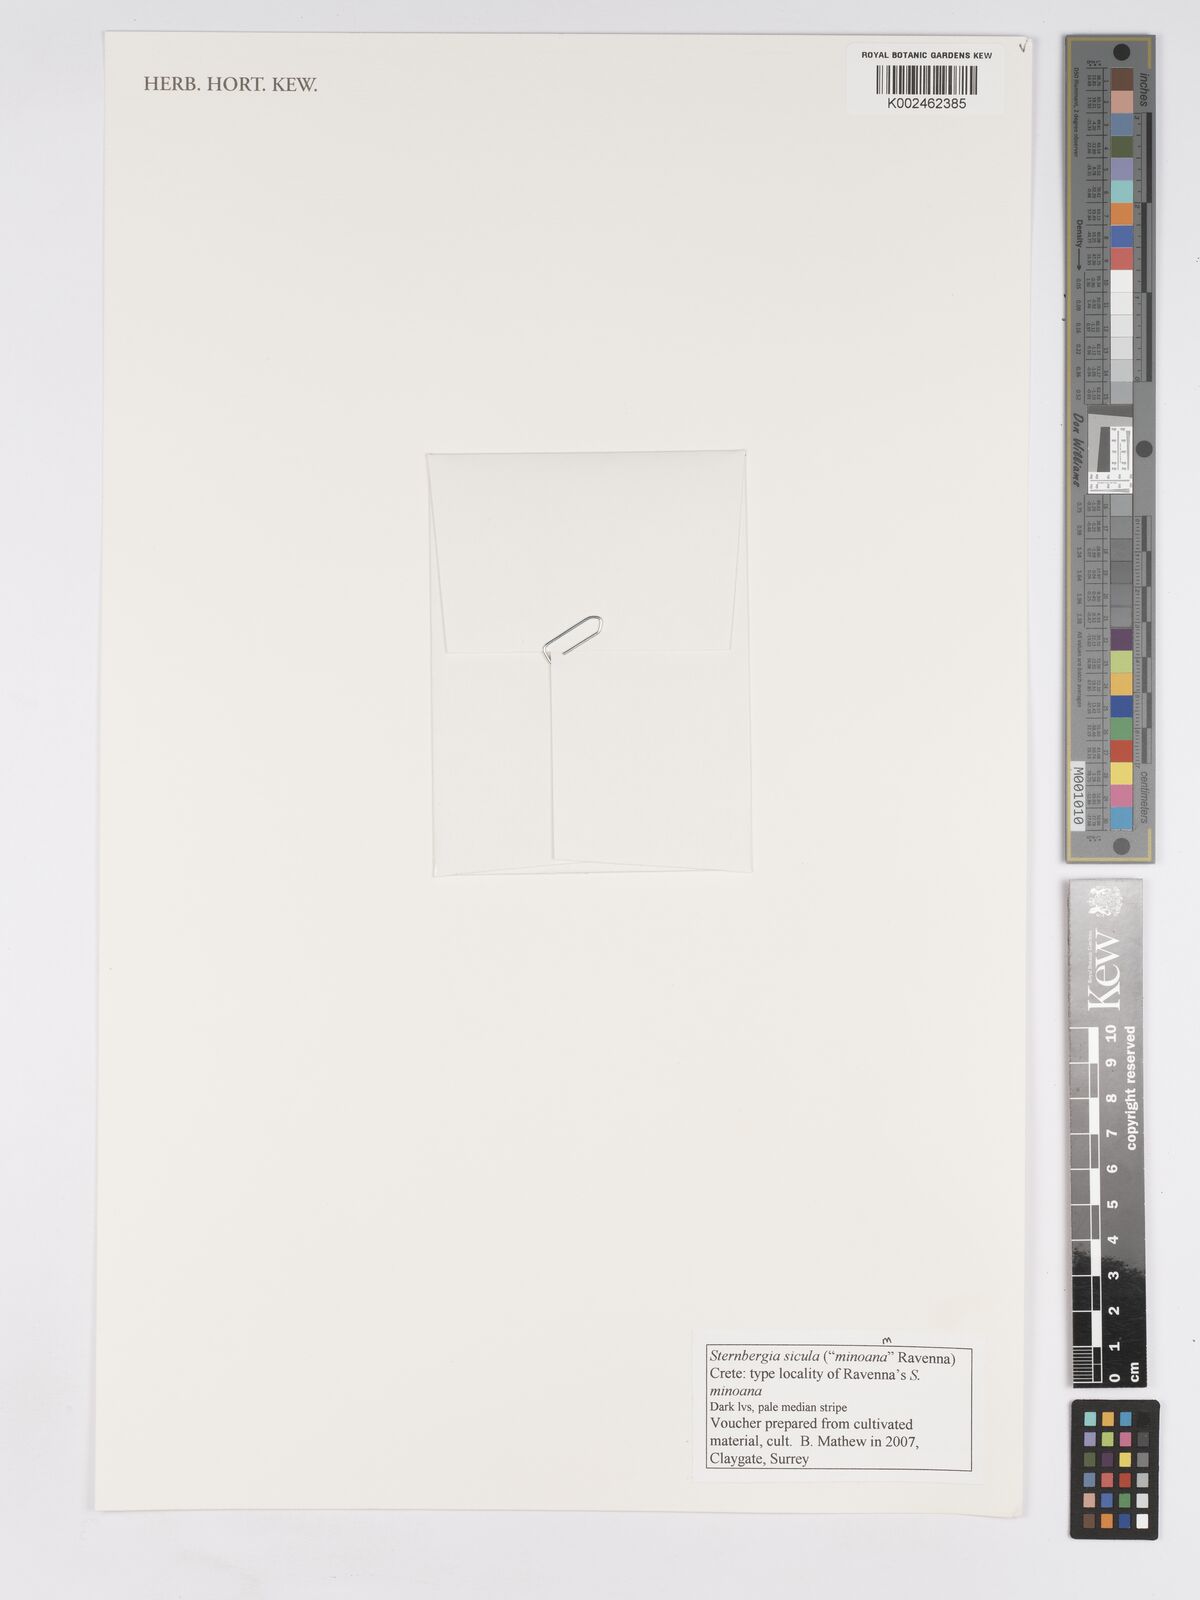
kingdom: Plantae
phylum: Tracheophyta
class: Liliopsida
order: Asparagales
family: Amaryllidaceae
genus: Sternbergia
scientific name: Sternbergia lutea
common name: Winter daffodil
